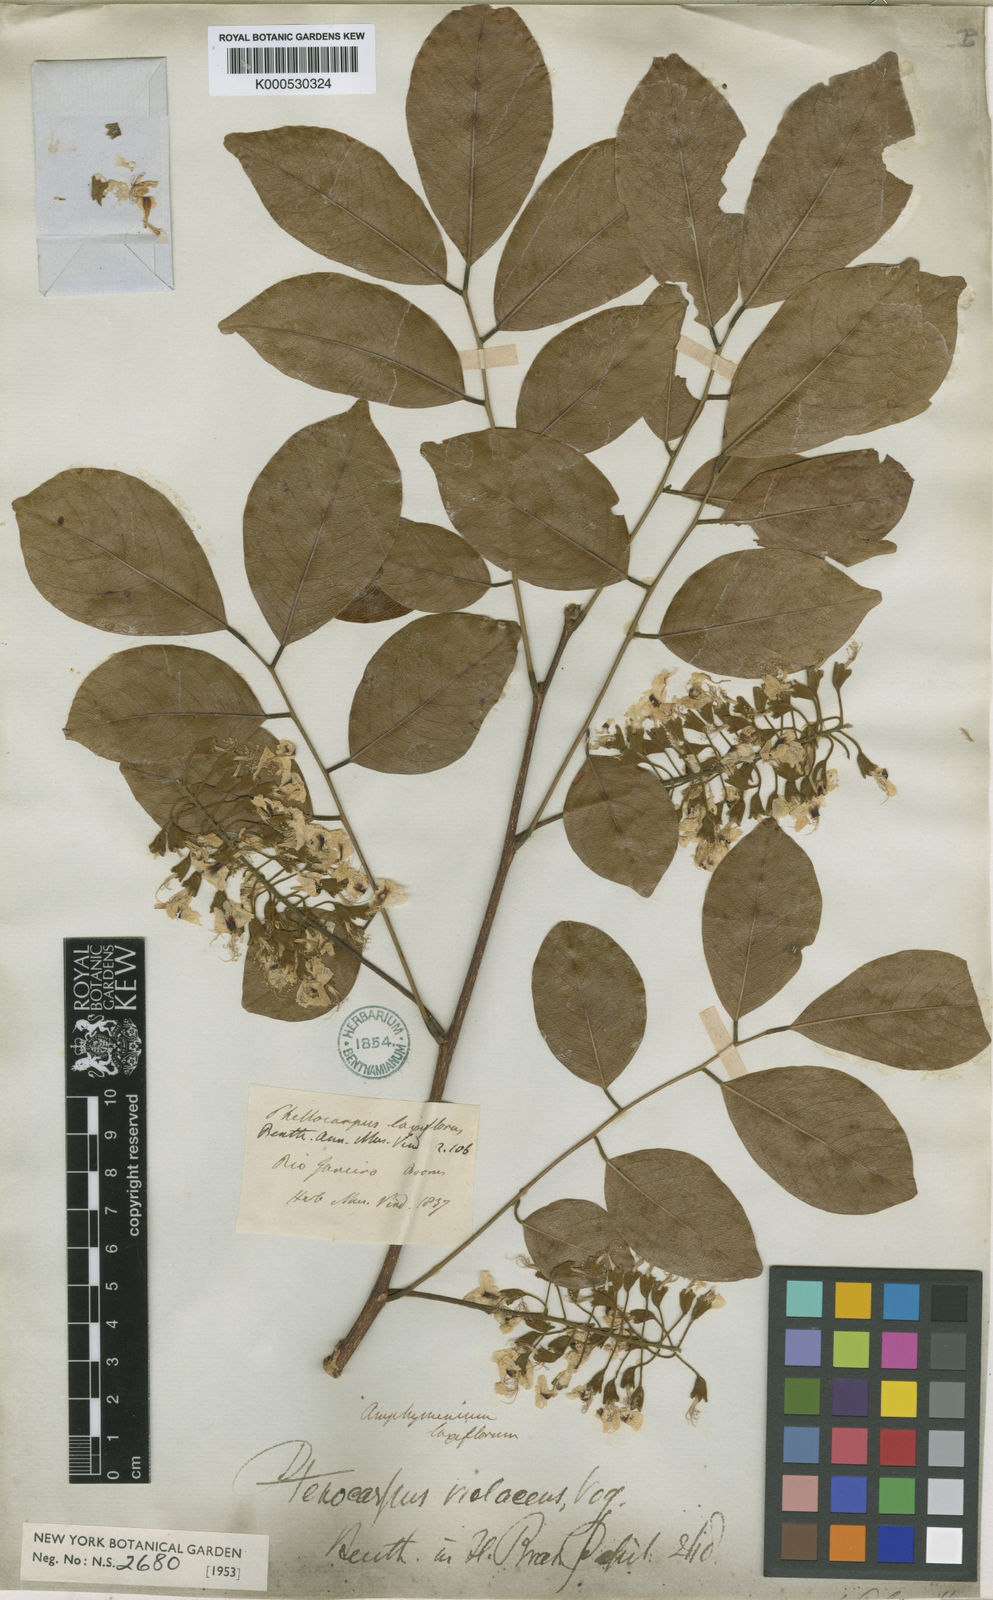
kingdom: Plantae
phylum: Tracheophyta
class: Magnoliopsida
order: Fabales
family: Fabaceae
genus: Pterocarpus
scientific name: Pterocarpus rohrii
